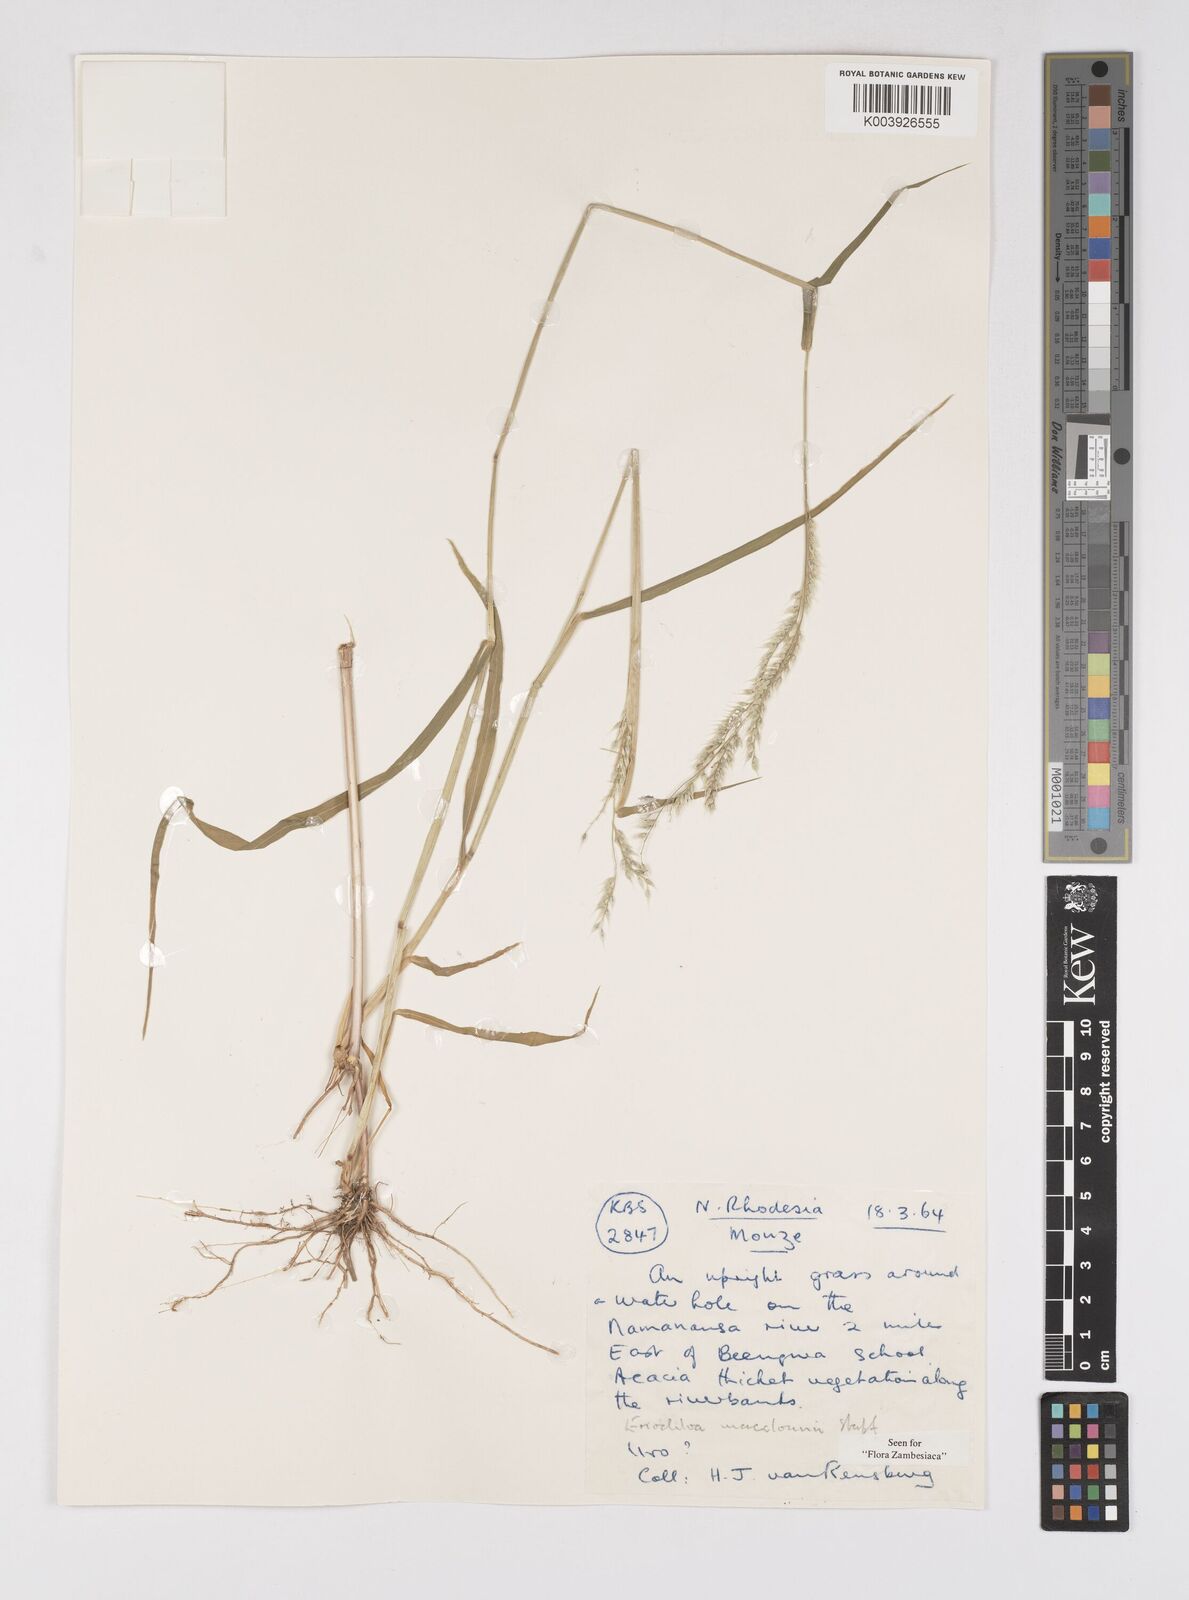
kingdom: Plantae
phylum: Tracheophyta
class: Liliopsida
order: Poales
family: Poaceae
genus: Eriochloa
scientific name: Eriochloa macclounii
